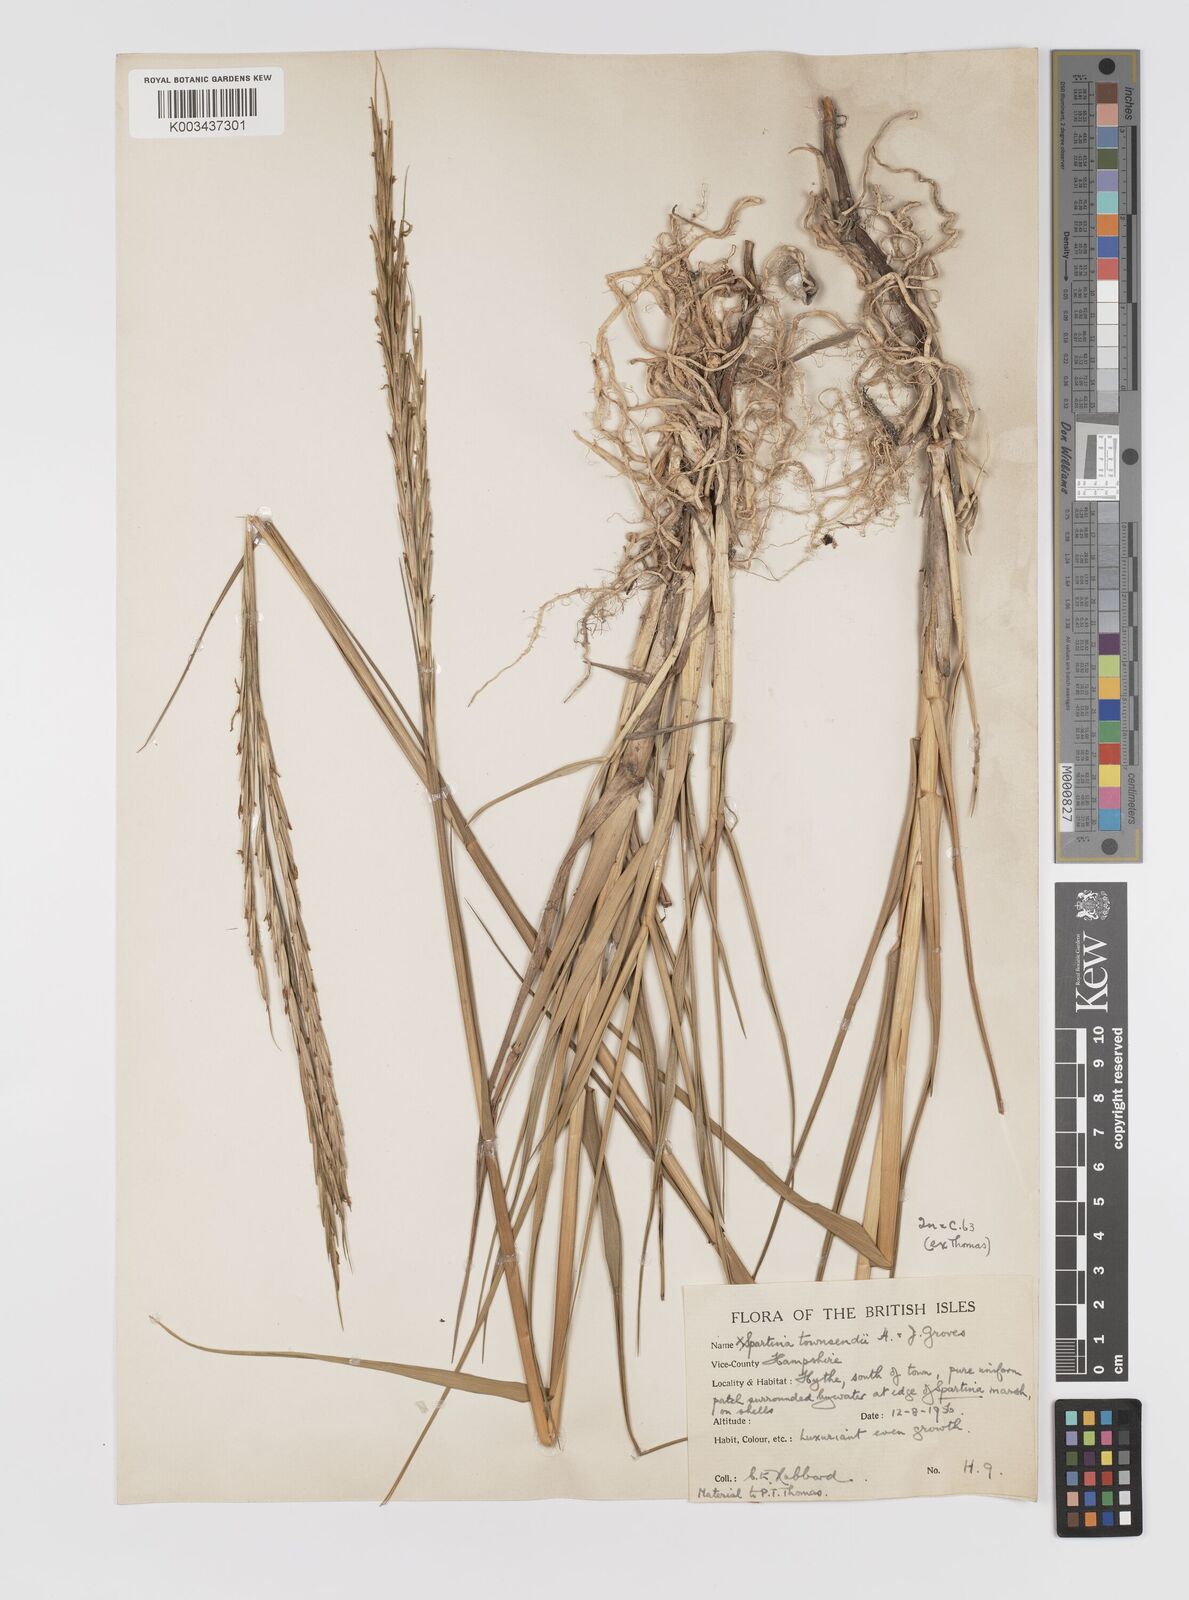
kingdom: Plantae
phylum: Tracheophyta
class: Liliopsida
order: Poales
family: Poaceae
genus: Sporobolus
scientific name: Sporobolus townsendii
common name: Townsend's cordgrass
